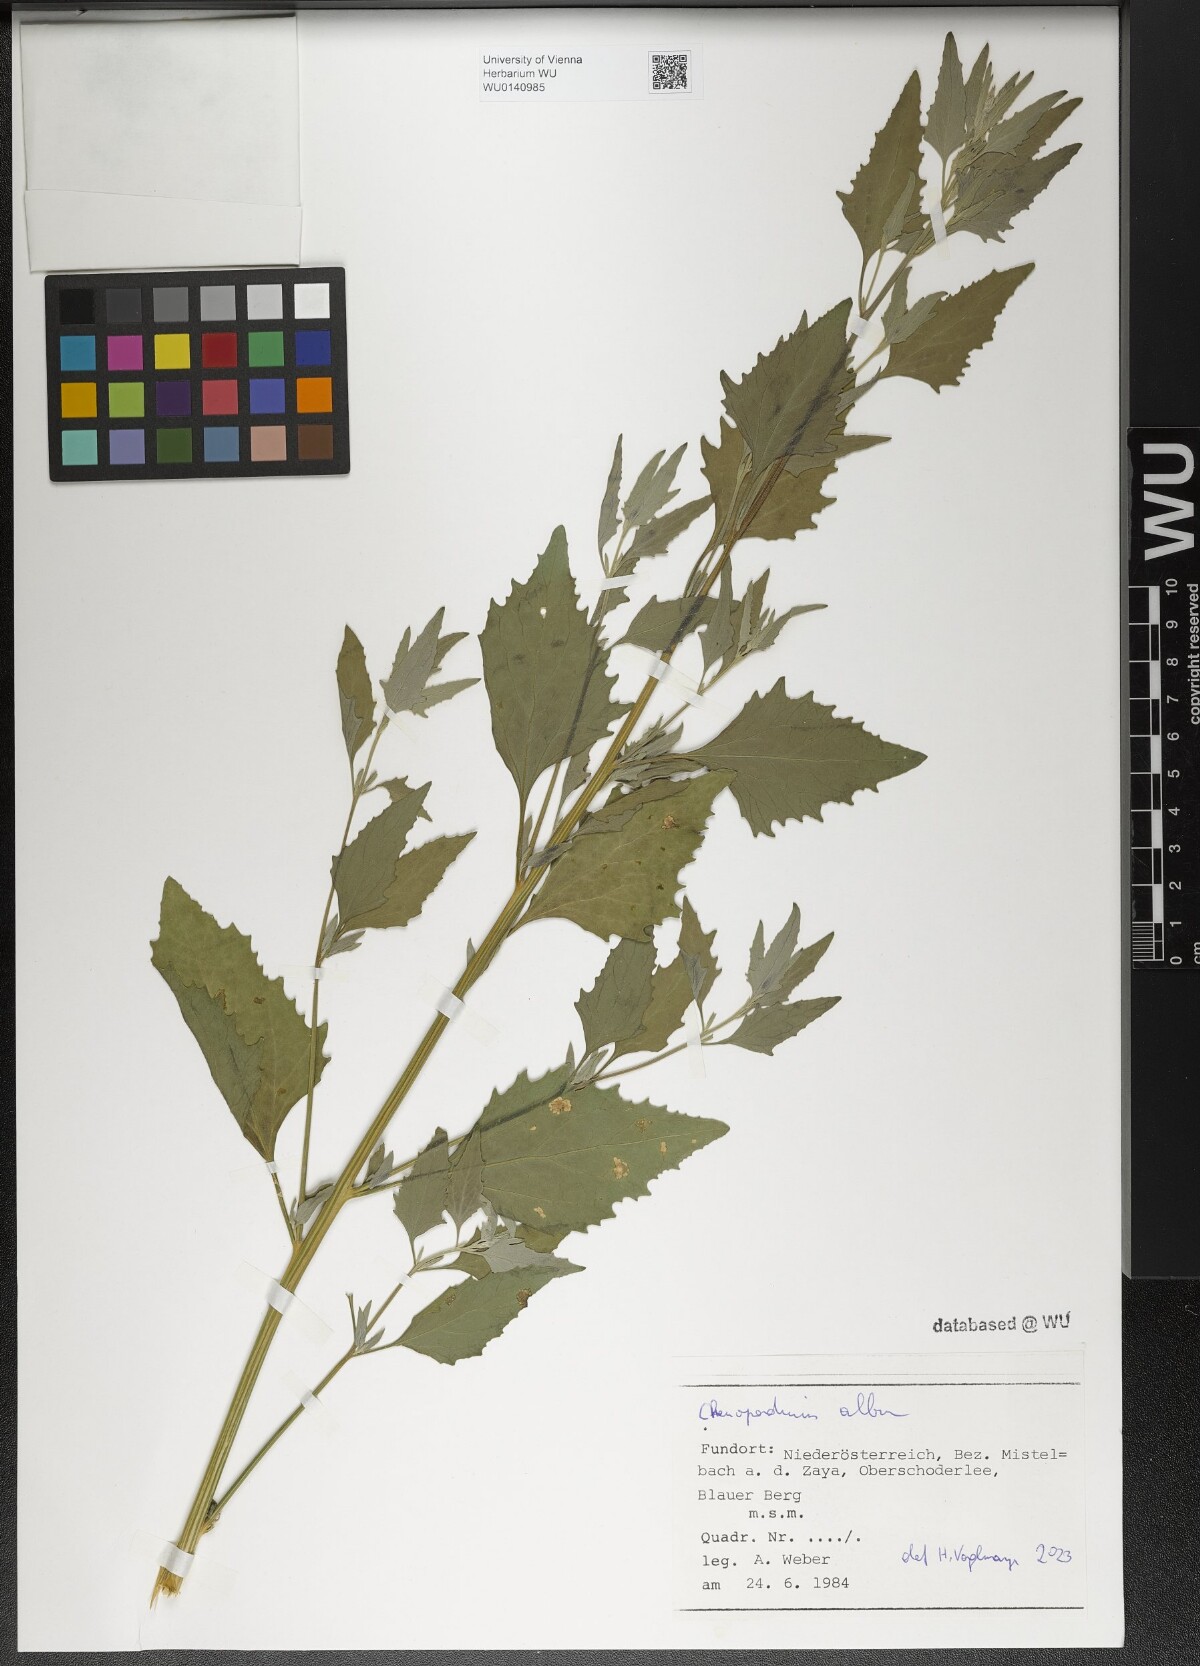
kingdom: Plantae
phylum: Tracheophyta
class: Magnoliopsida
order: Caryophyllales
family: Amaranthaceae
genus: Chenopodium
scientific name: Chenopodium album
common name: Fat-hen
